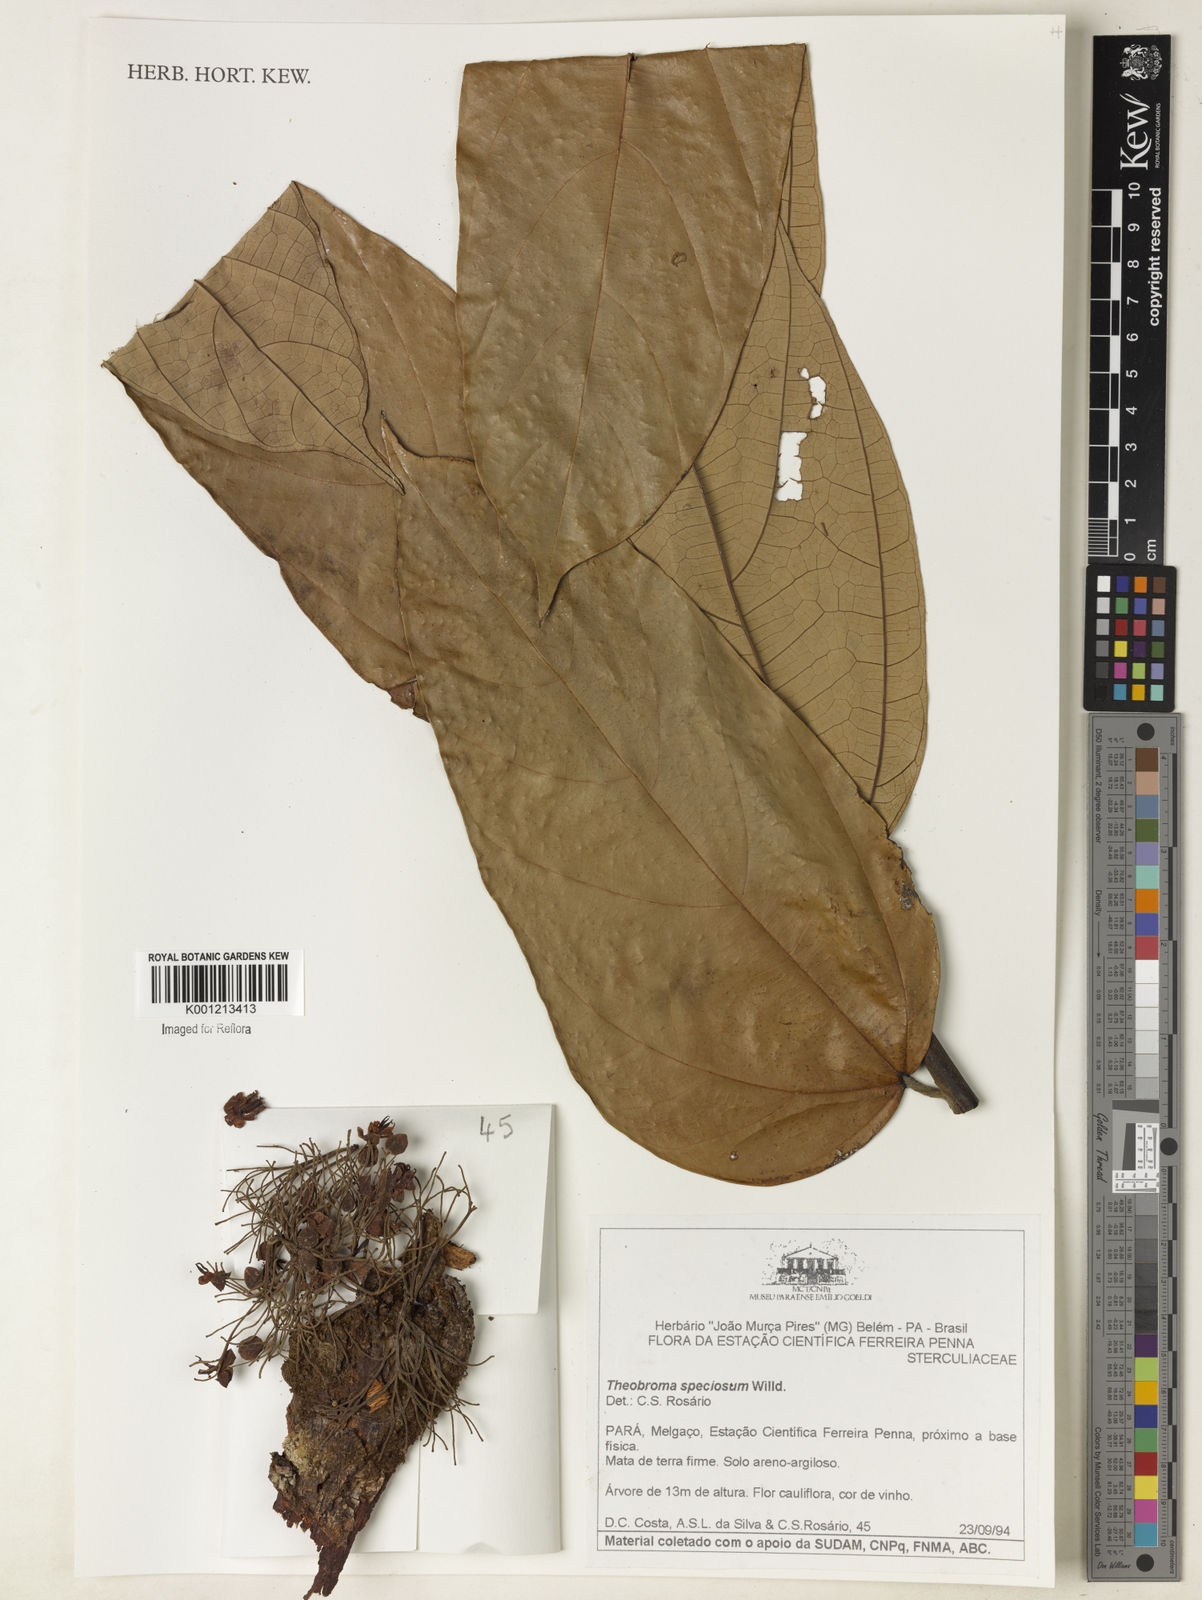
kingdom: Plantae
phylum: Tracheophyta
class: Magnoliopsida
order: Malvales
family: Malvaceae
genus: Theobroma
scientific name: Theobroma speciosum
